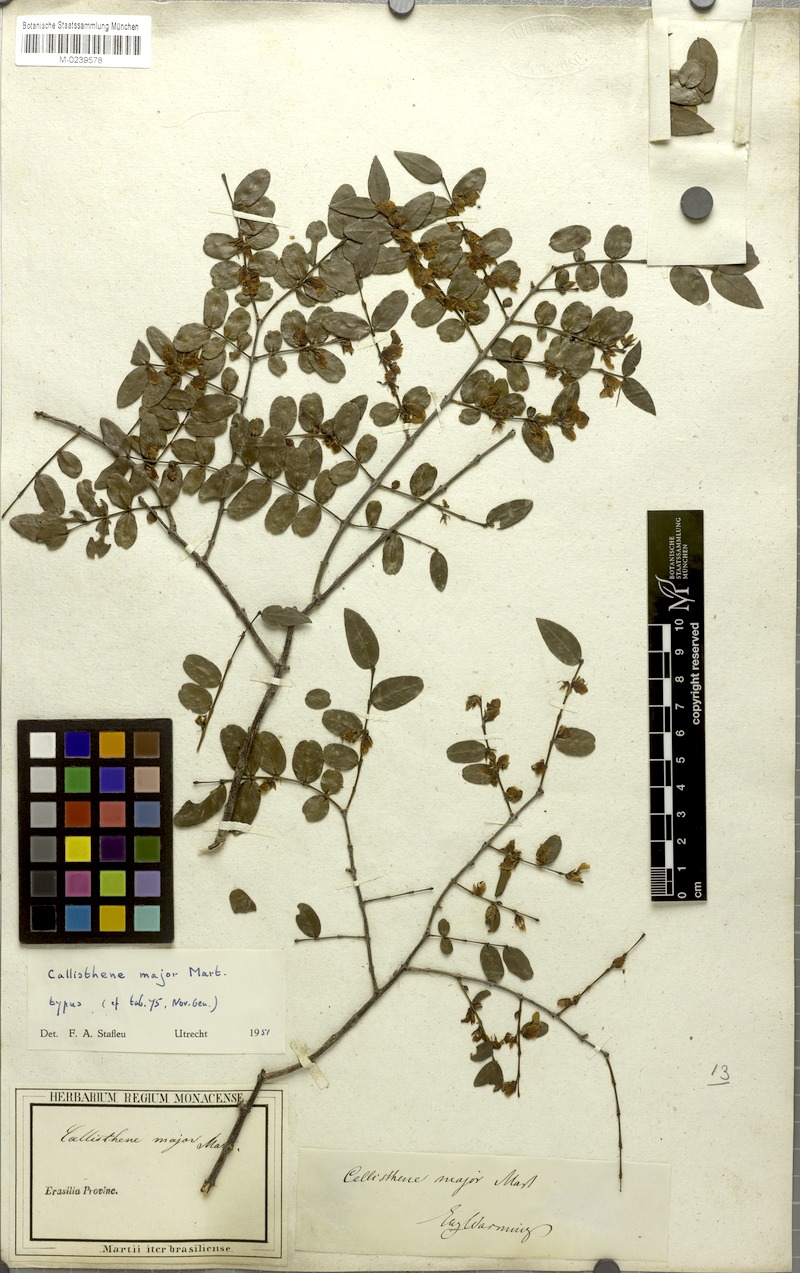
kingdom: Plantae
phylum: Tracheophyta
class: Magnoliopsida
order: Myrtales
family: Vochysiaceae
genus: Callisthene
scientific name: Callisthene major
